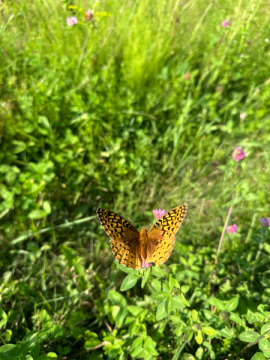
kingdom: Animalia
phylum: Arthropoda
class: Insecta
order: Lepidoptera
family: Nymphalidae
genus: Speyeria
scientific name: Speyeria cybele
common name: Great Spangled Fritillary
